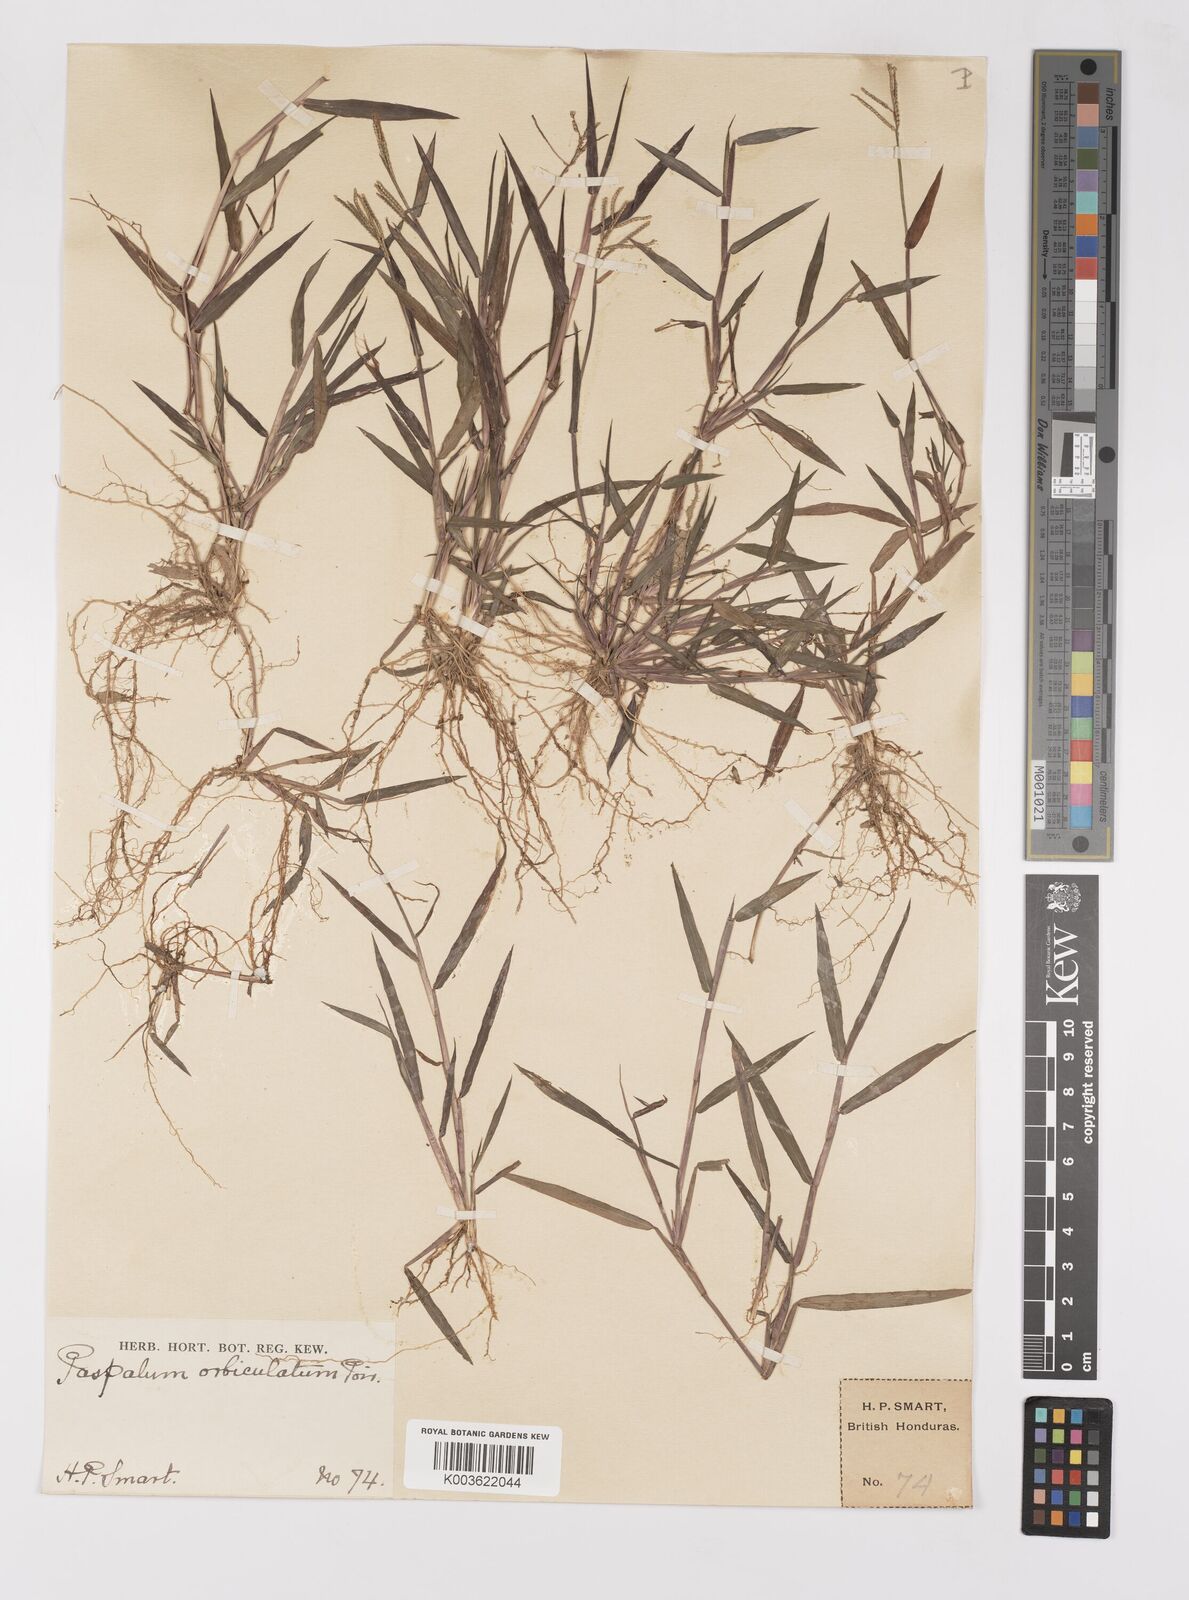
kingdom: Plantae
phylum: Tracheophyta
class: Liliopsida
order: Poales
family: Poaceae
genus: Paspalum
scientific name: Paspalum orbiculatum
